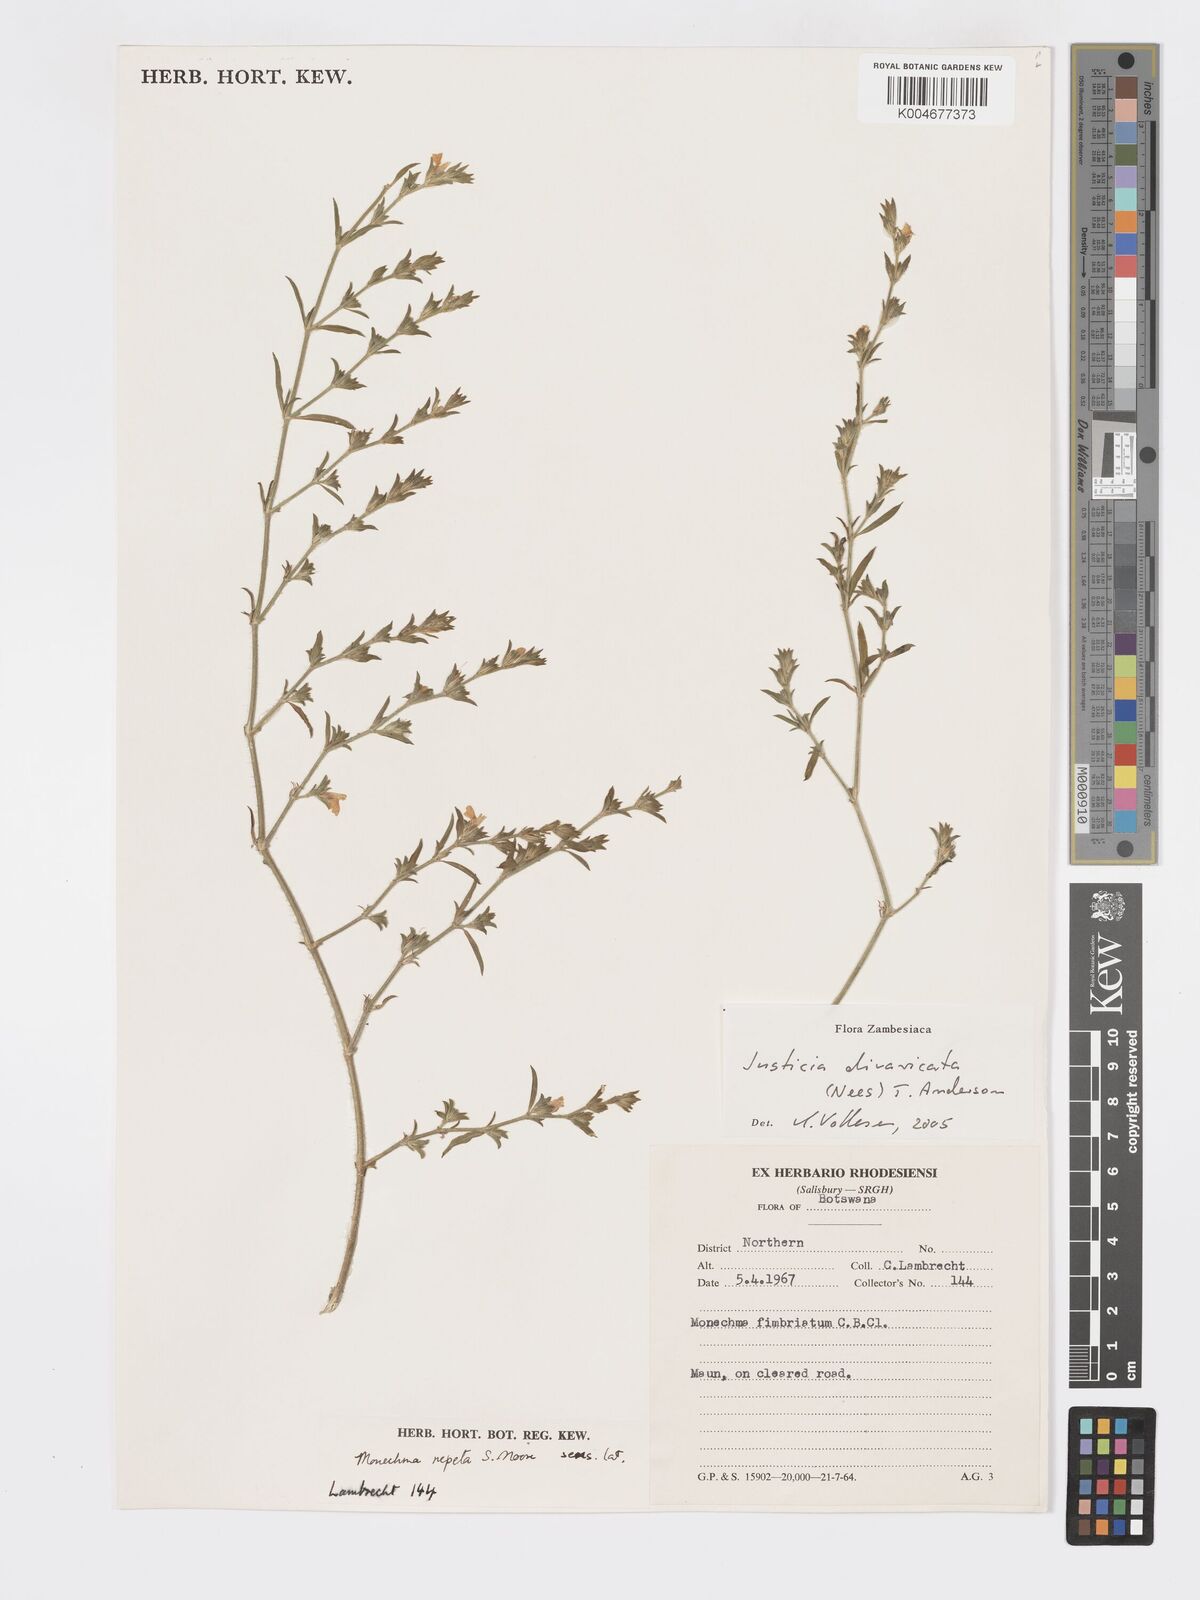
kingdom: Plantae
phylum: Tracheophyta
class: Magnoliopsida
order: Lamiales
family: Acanthaceae
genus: Pogonospermum
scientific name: Pogonospermum
